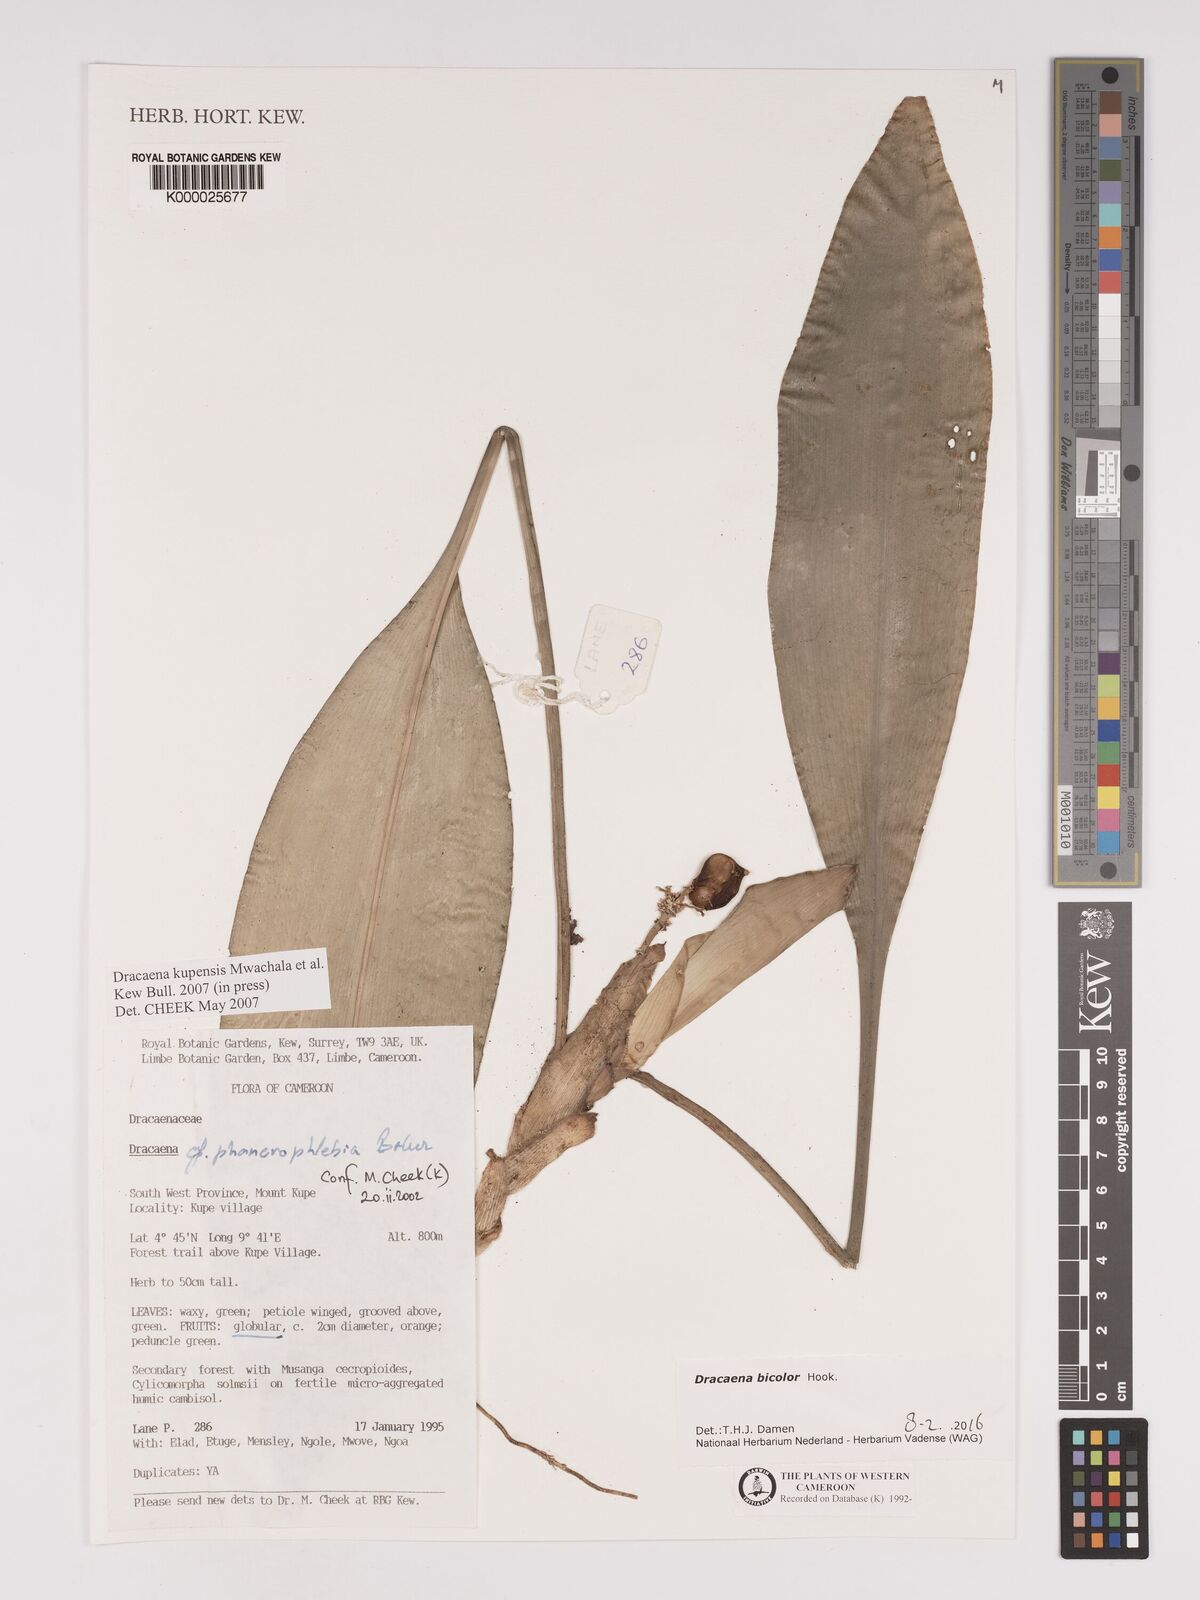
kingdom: Plantae
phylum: Tracheophyta
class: Liliopsida
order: Asparagales
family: Asparagaceae
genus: Dracaena
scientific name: Dracaena kupensis
